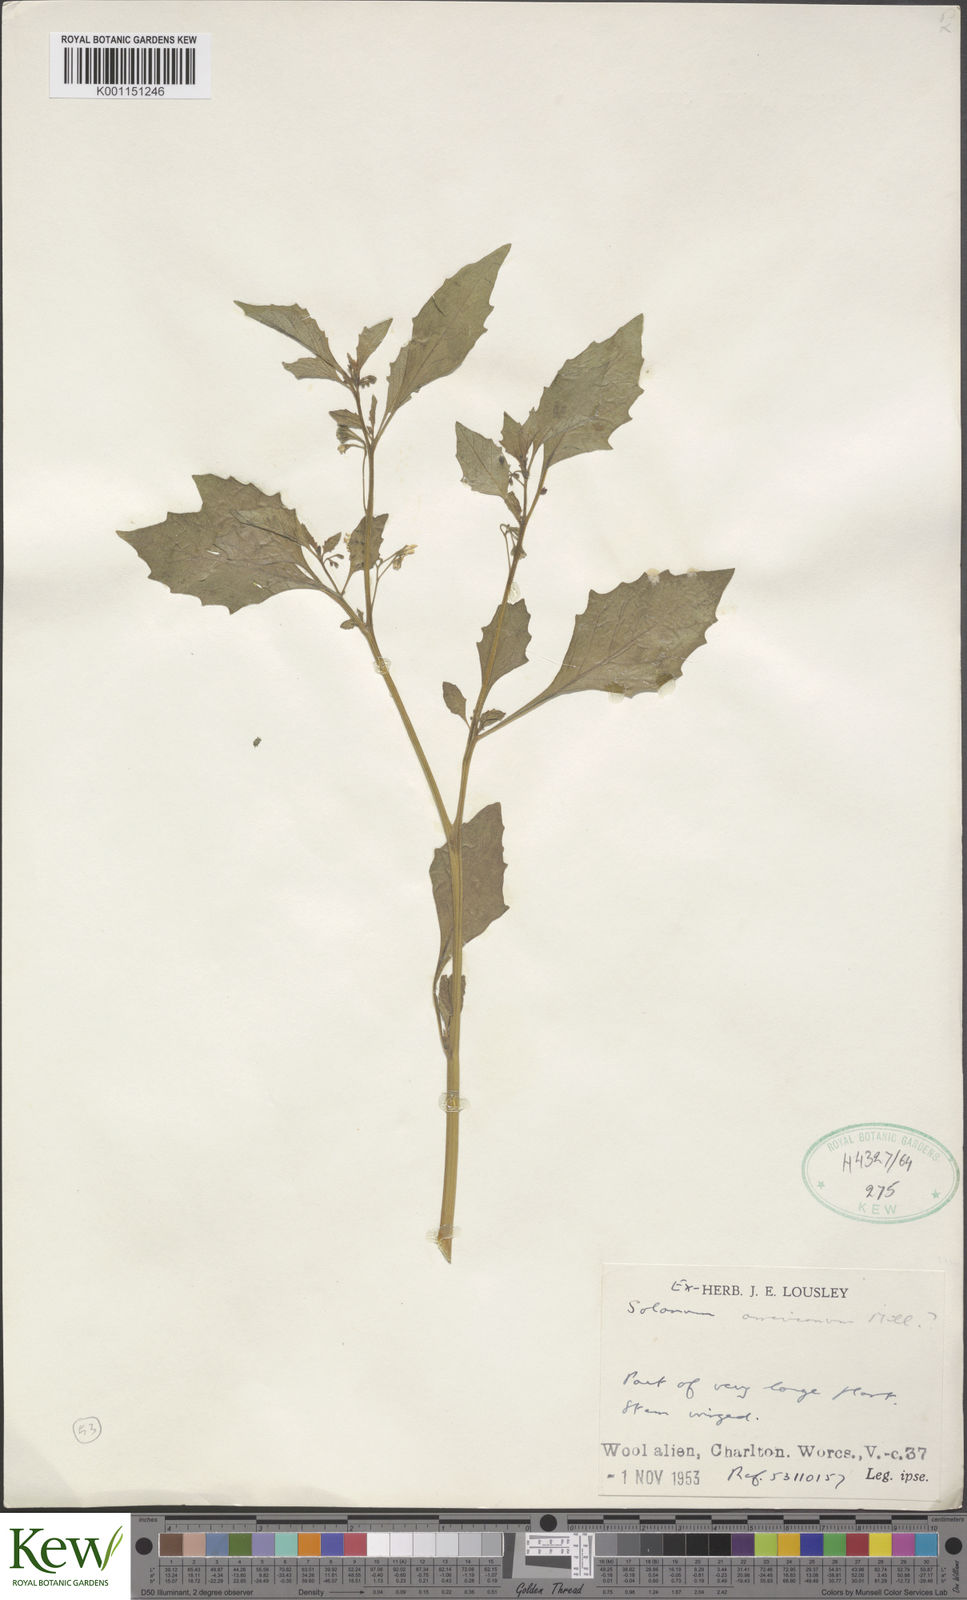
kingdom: Plantae
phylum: Tracheophyta
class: Magnoliopsida
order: Solanales
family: Solanaceae
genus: Solanum
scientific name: Solanum nigrum
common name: Black nightshade
